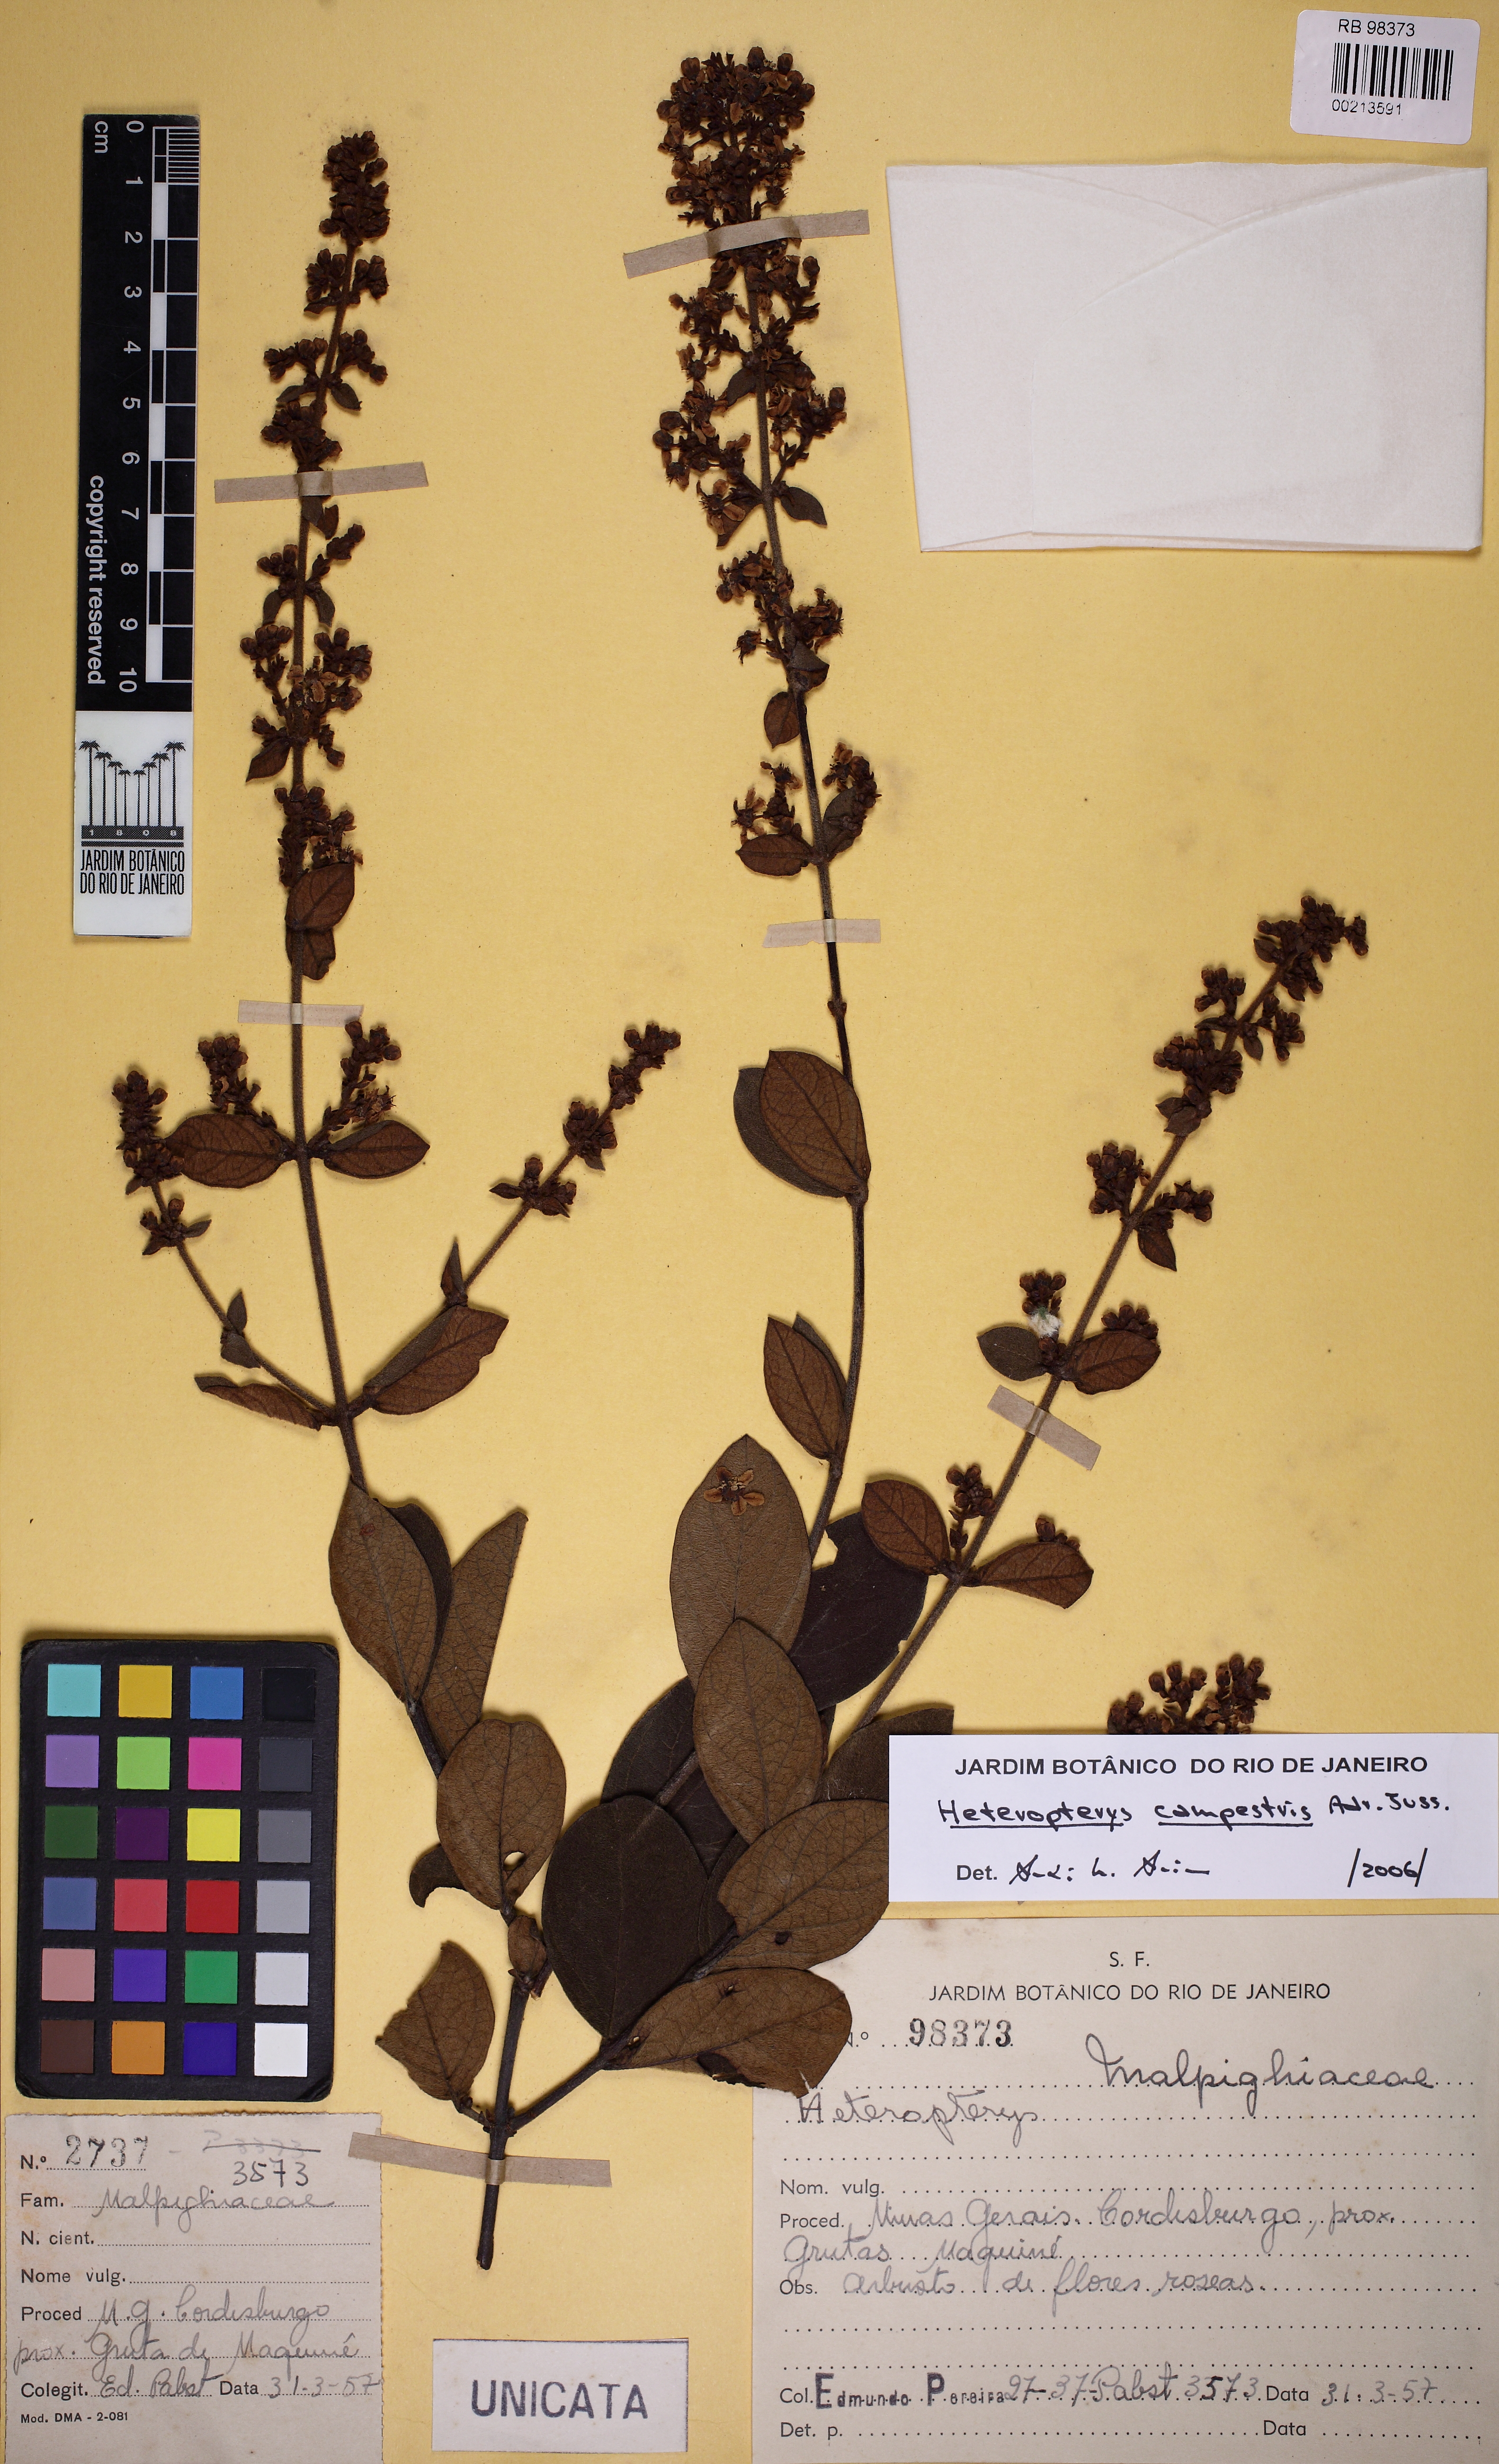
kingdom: Plantae
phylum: Tracheophyta
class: Magnoliopsida
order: Malpighiales
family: Malpighiaceae
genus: Heteropterys
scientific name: Heteropterys campestris
